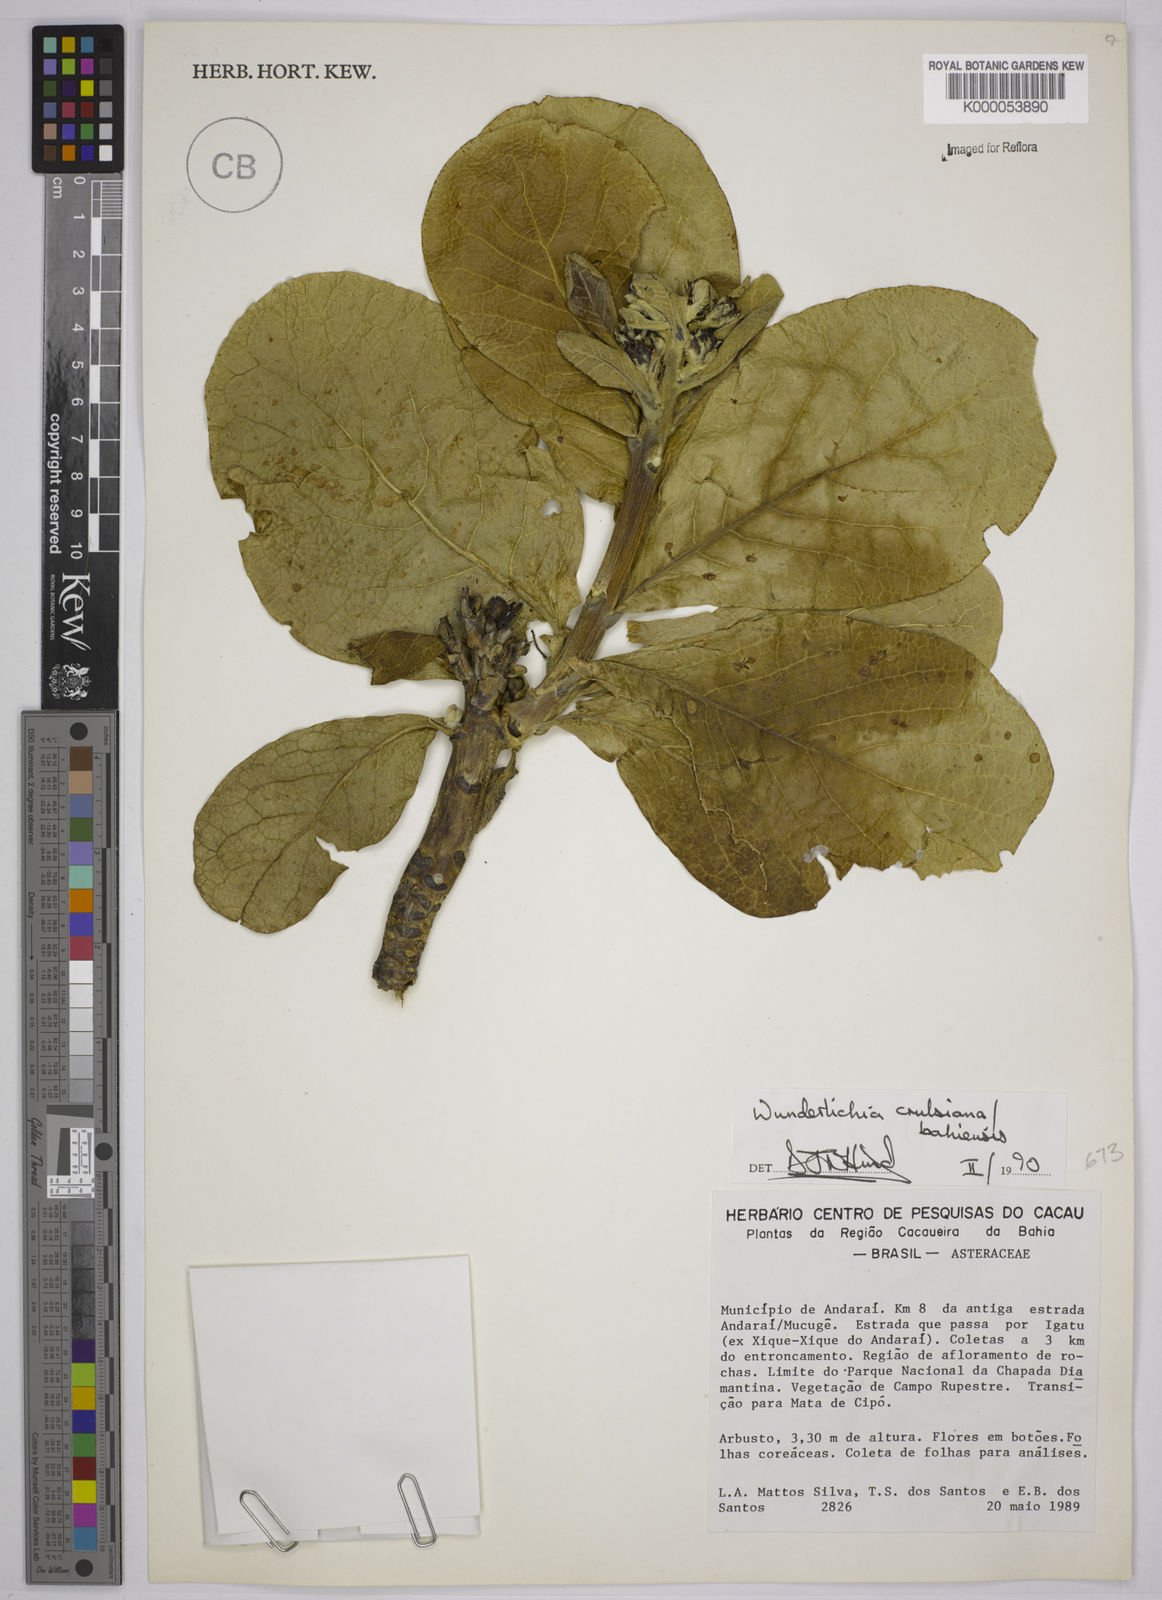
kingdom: Plantae
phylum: Tracheophyta
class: Magnoliopsida
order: Asterales
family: Asteraceae
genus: Wunderlichia
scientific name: Wunderlichia
